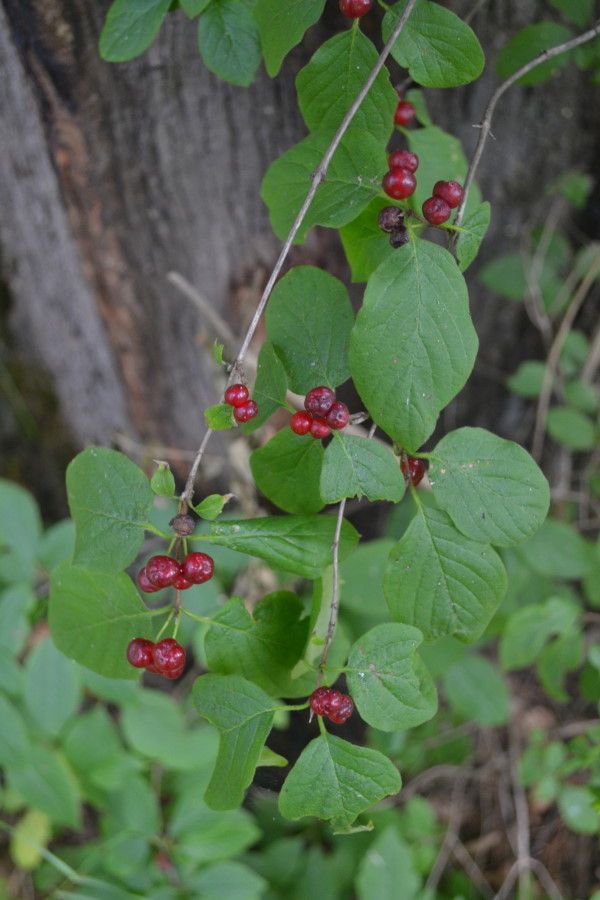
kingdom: Plantae
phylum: Tracheophyta
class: Magnoliopsida
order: Dipsacales
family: Caprifoliaceae
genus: Lonicera
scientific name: Lonicera xylosteum
